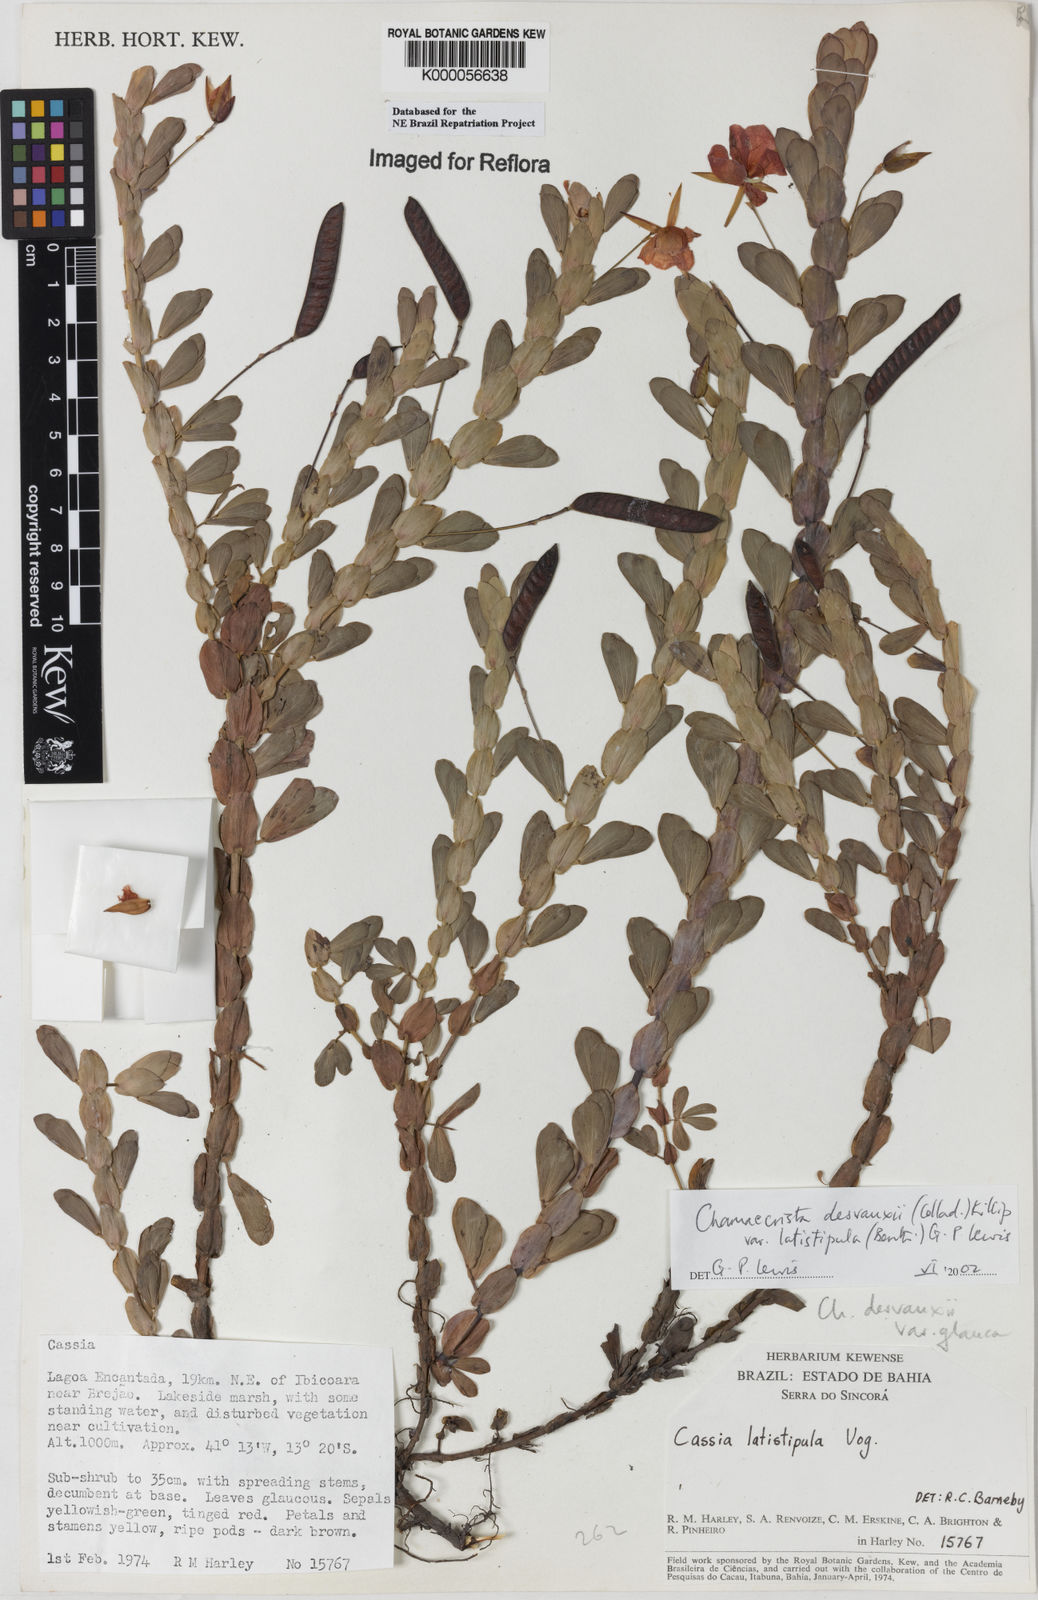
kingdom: Plantae
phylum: Tracheophyta
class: Magnoliopsida
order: Fabales
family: Fabaceae
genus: Chamaecrista
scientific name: Chamaecrista desvauxii
